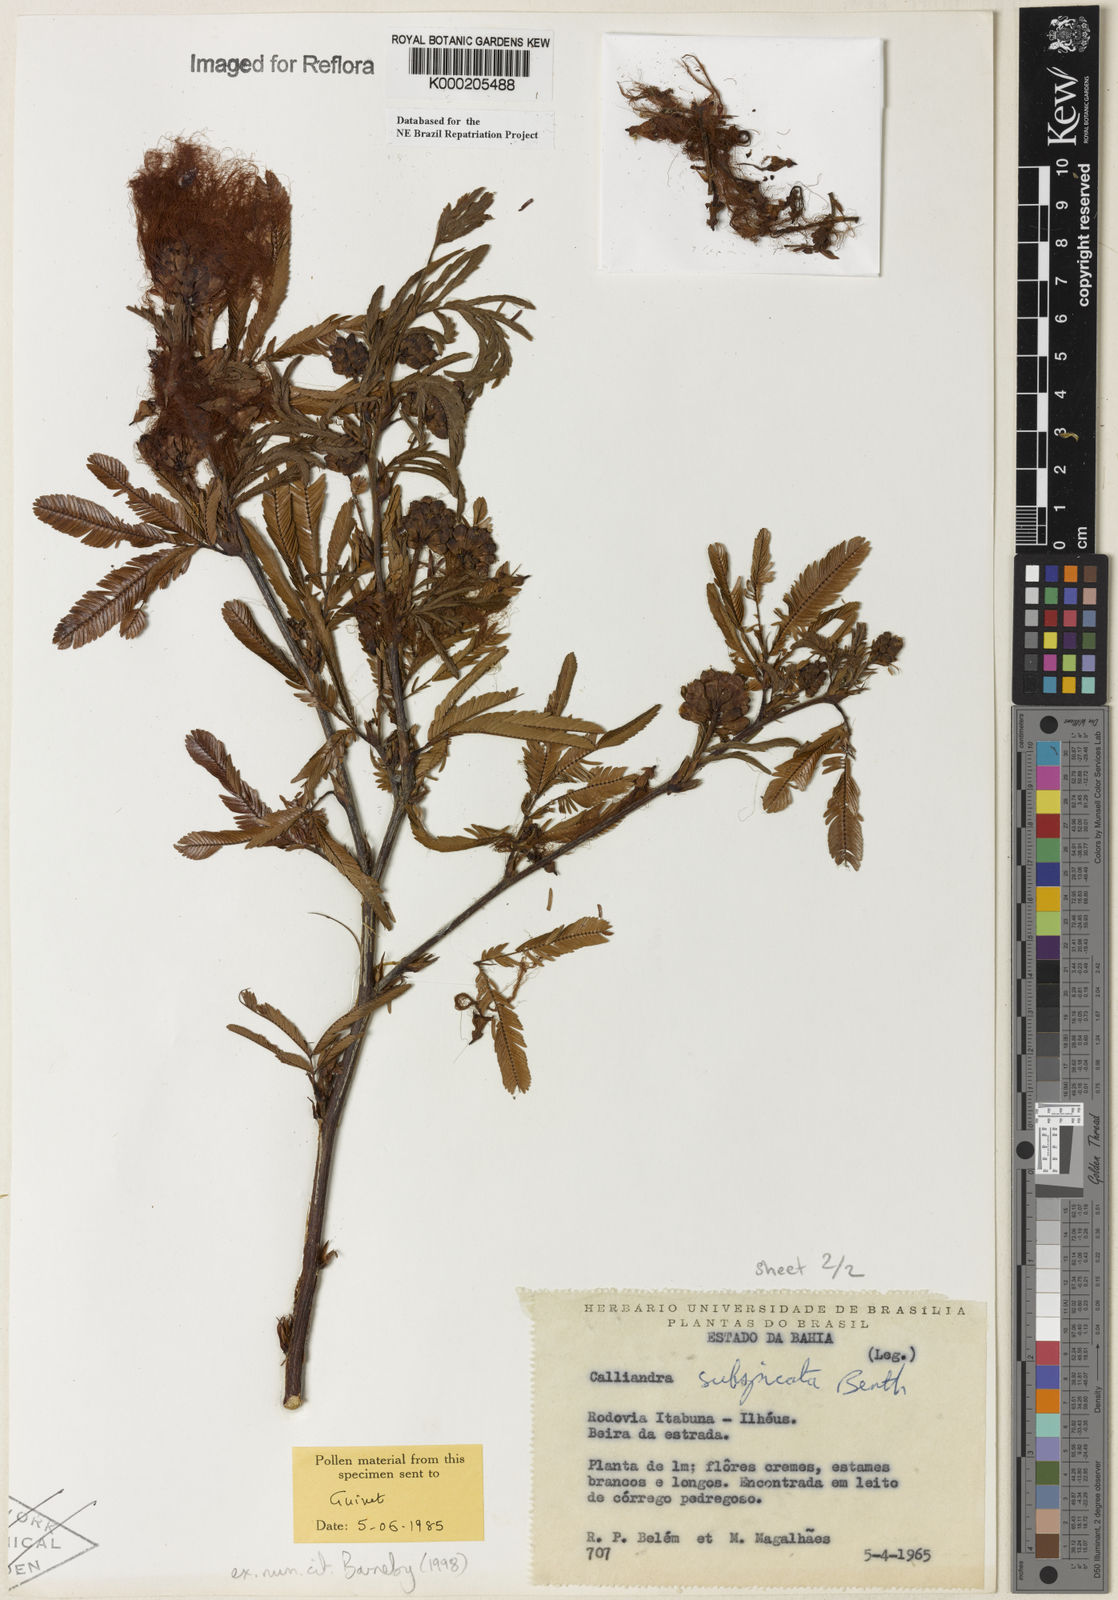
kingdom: Plantae
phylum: Tracheophyta
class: Magnoliopsida
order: Fabales
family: Fabaceae
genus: Calliandra
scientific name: Calliandra subspicata
